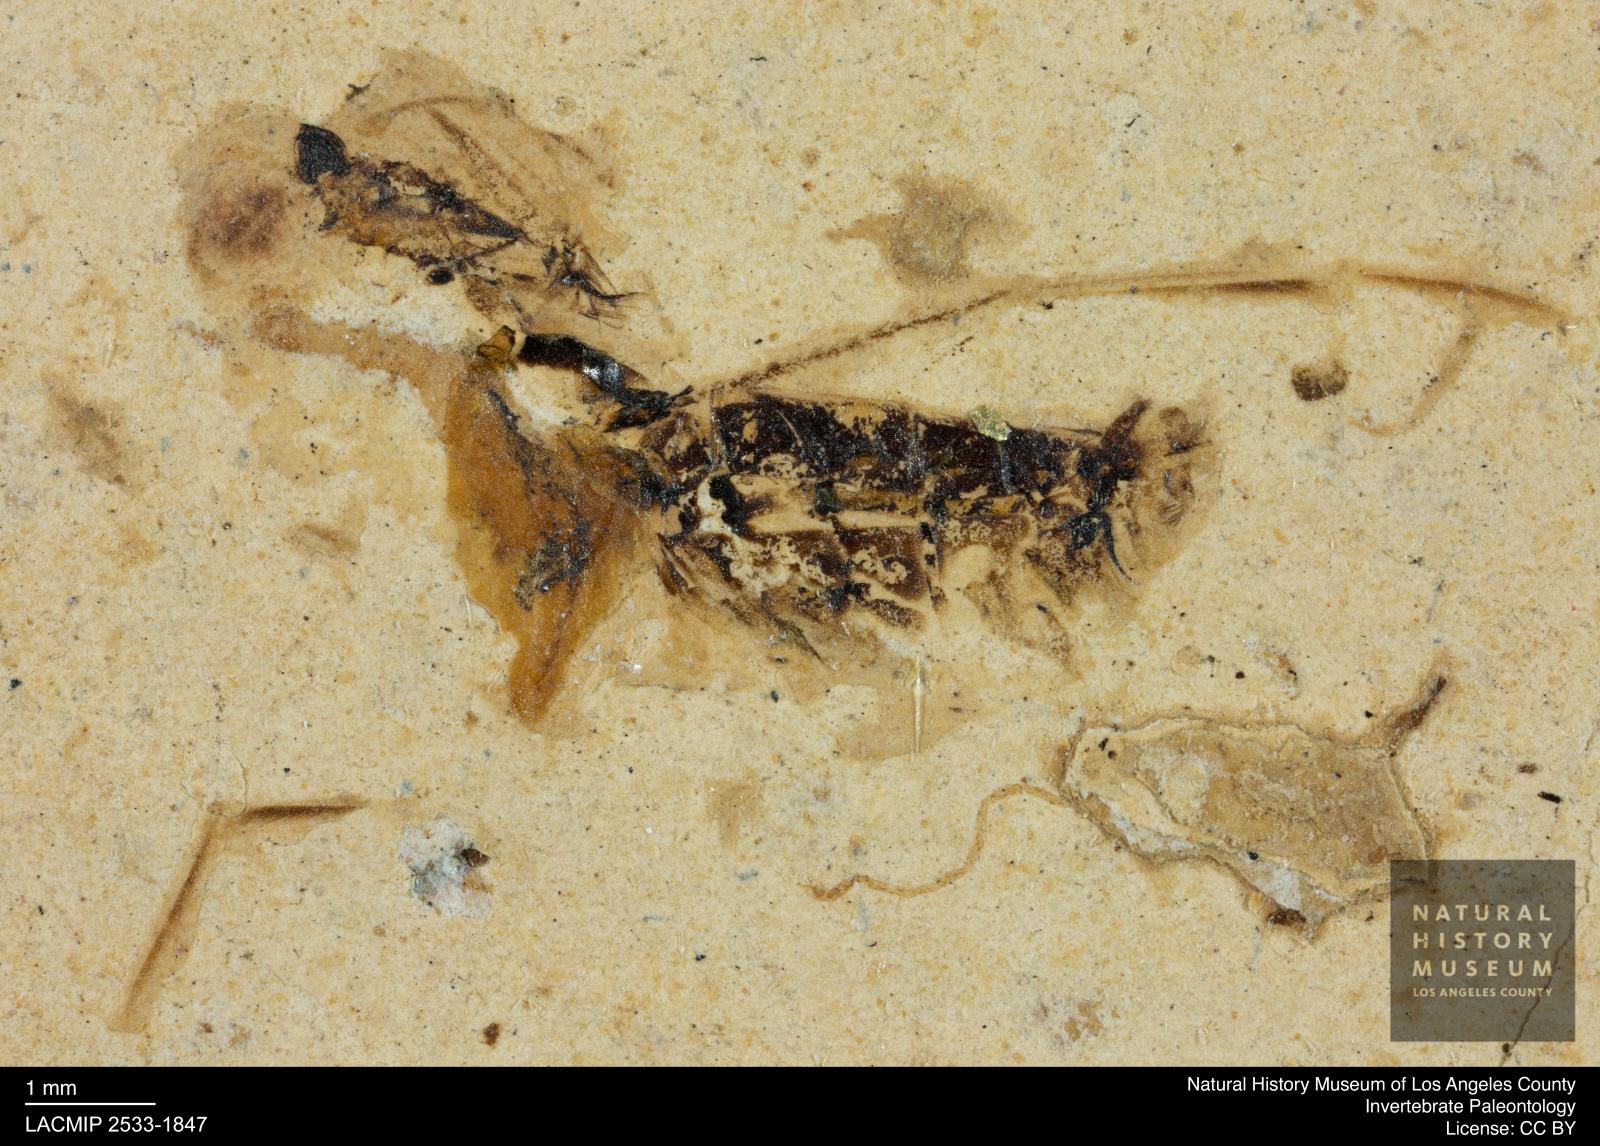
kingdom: Animalia
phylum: Arthropoda
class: Insecta
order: Hemiptera
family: Notonectidae
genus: Notonecta
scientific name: Notonecta
